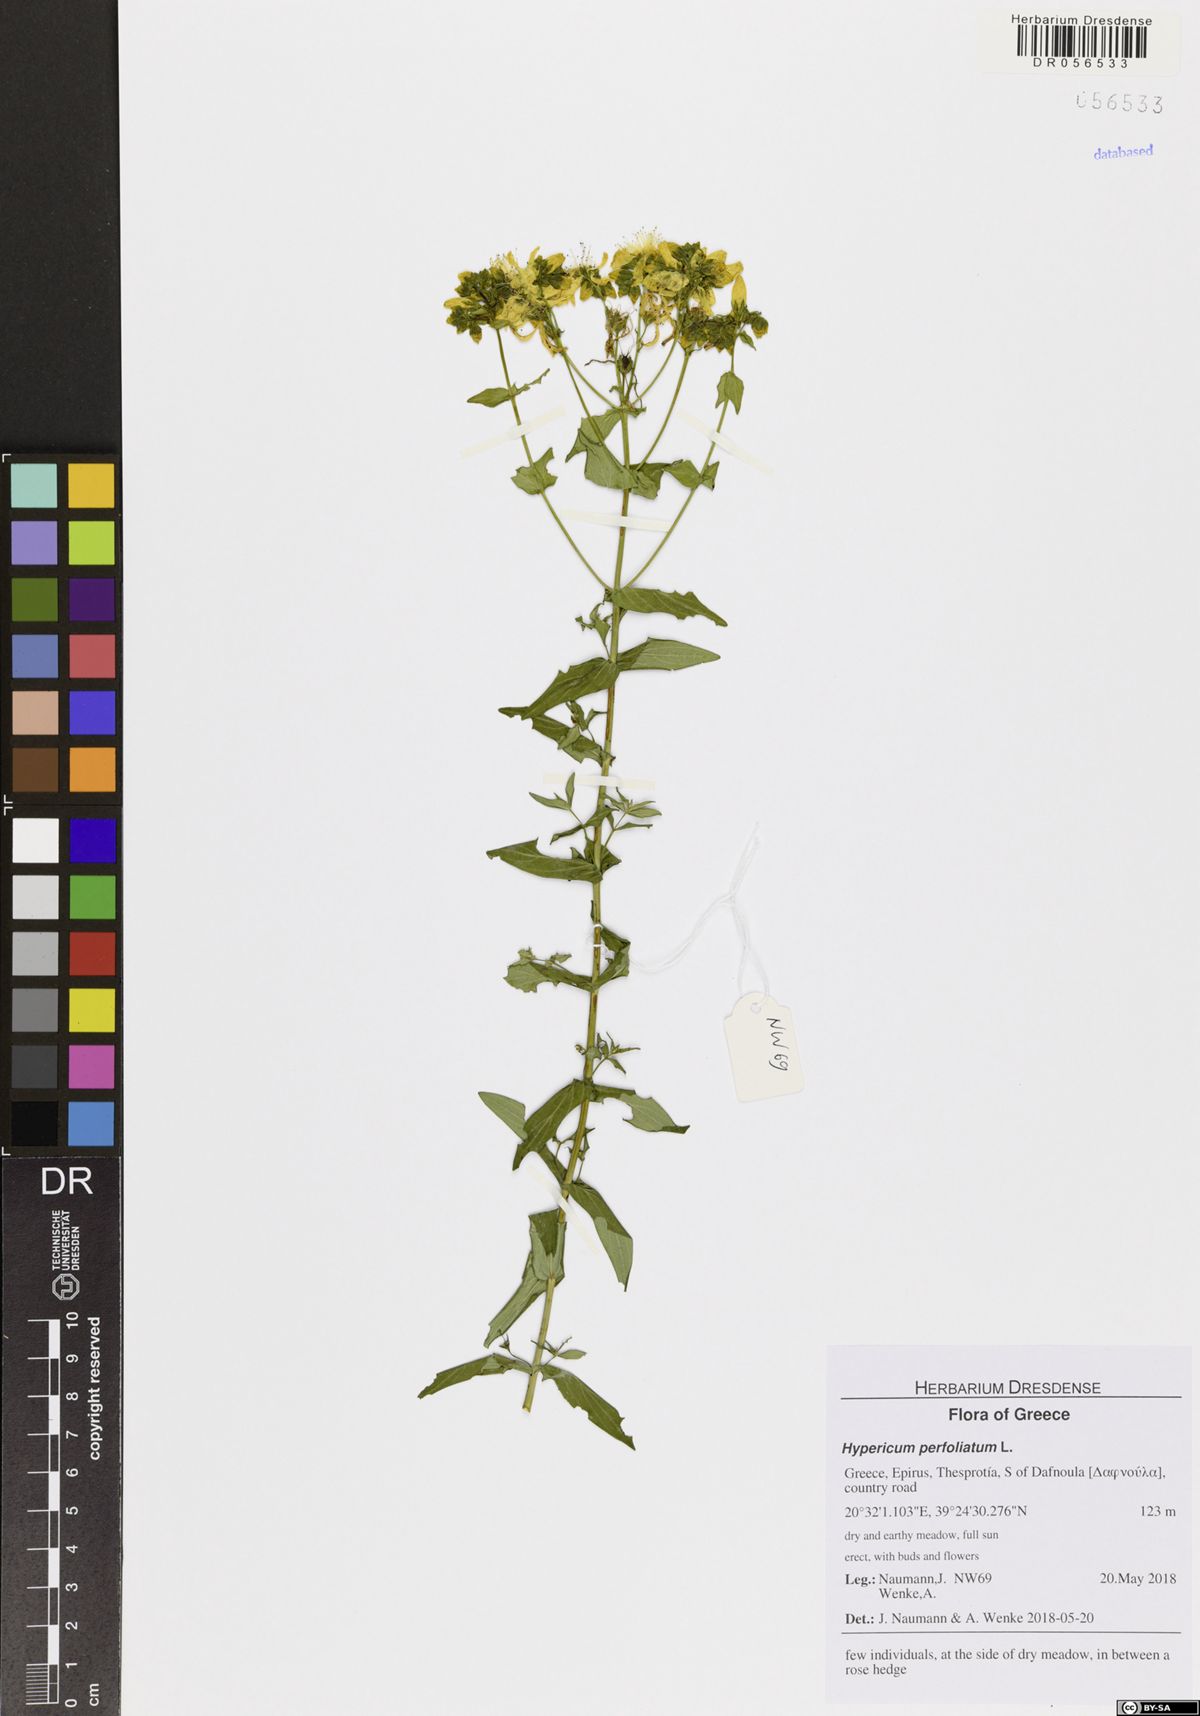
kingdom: Plantae
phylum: Tracheophyta
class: Magnoliopsida
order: Malpighiales
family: Hypericaceae
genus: Hypericum
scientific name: Hypericum perfoliatum
